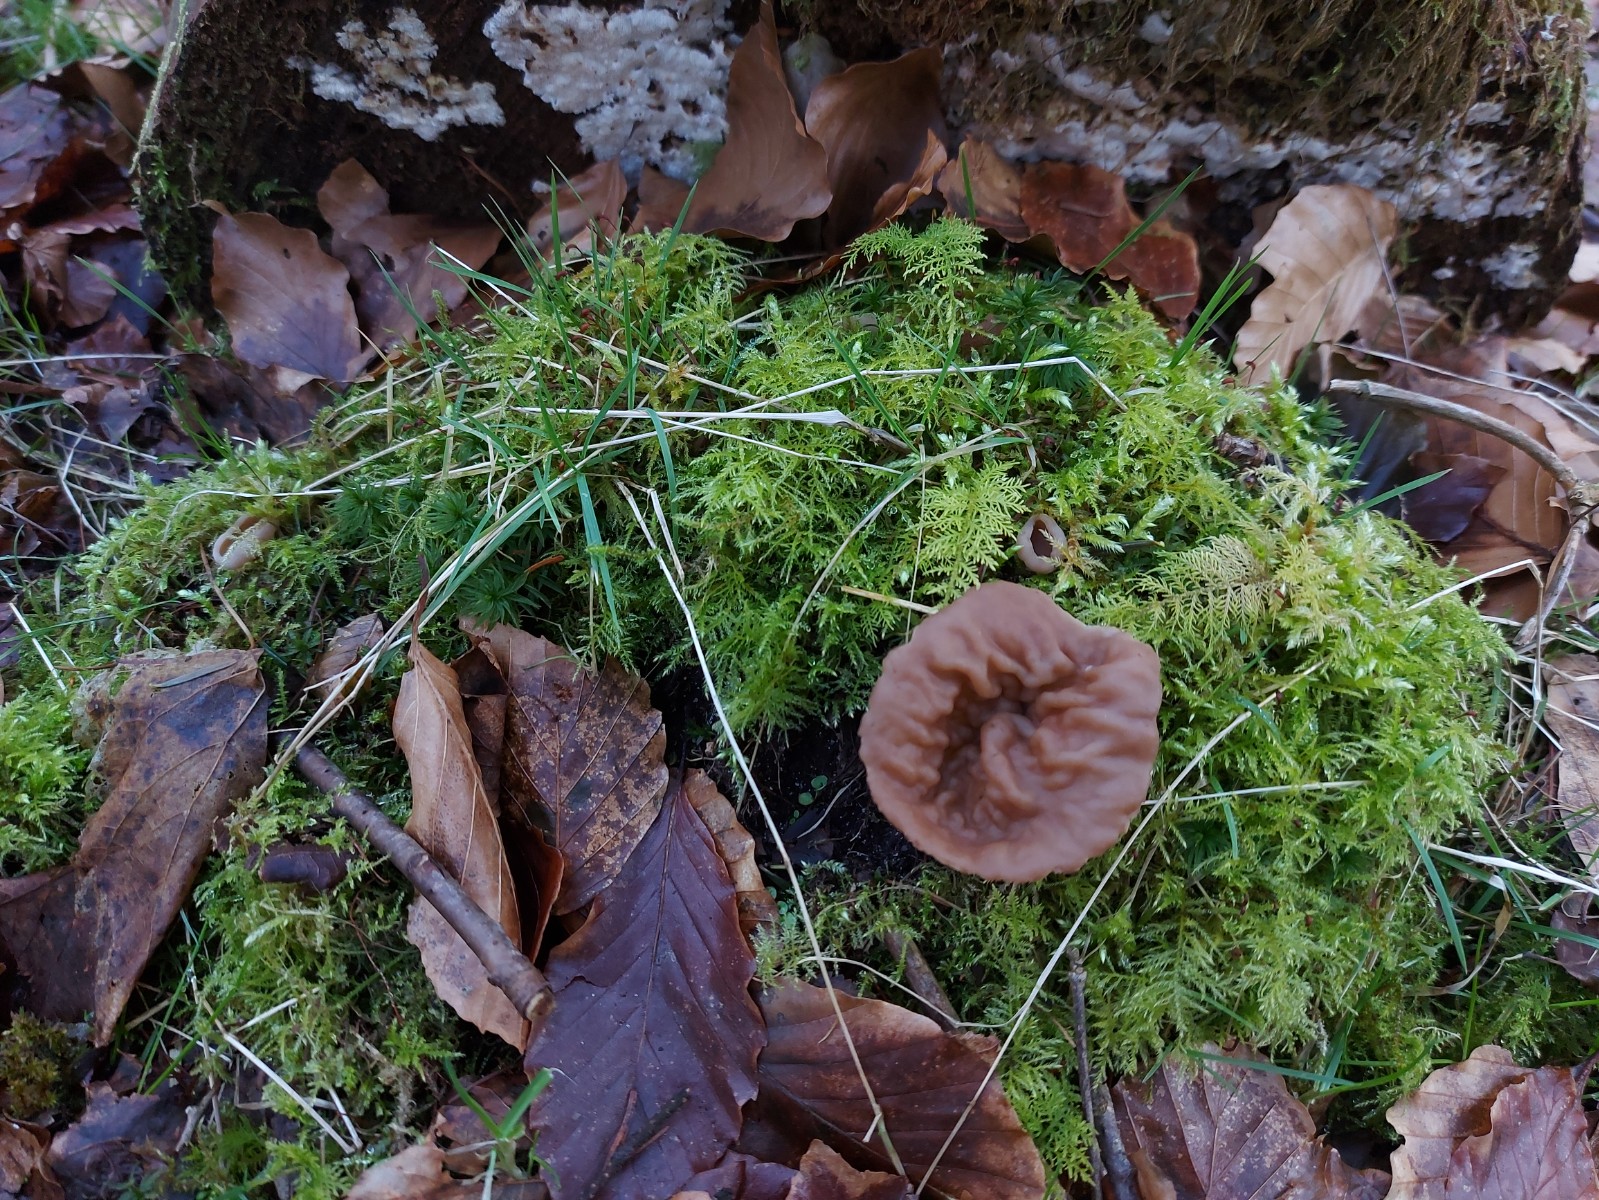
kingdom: Fungi
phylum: Ascomycota
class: Pezizomycetes
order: Pezizales
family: Discinaceae
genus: Discina
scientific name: Discina ancilis
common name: udbredt stenmorkel
